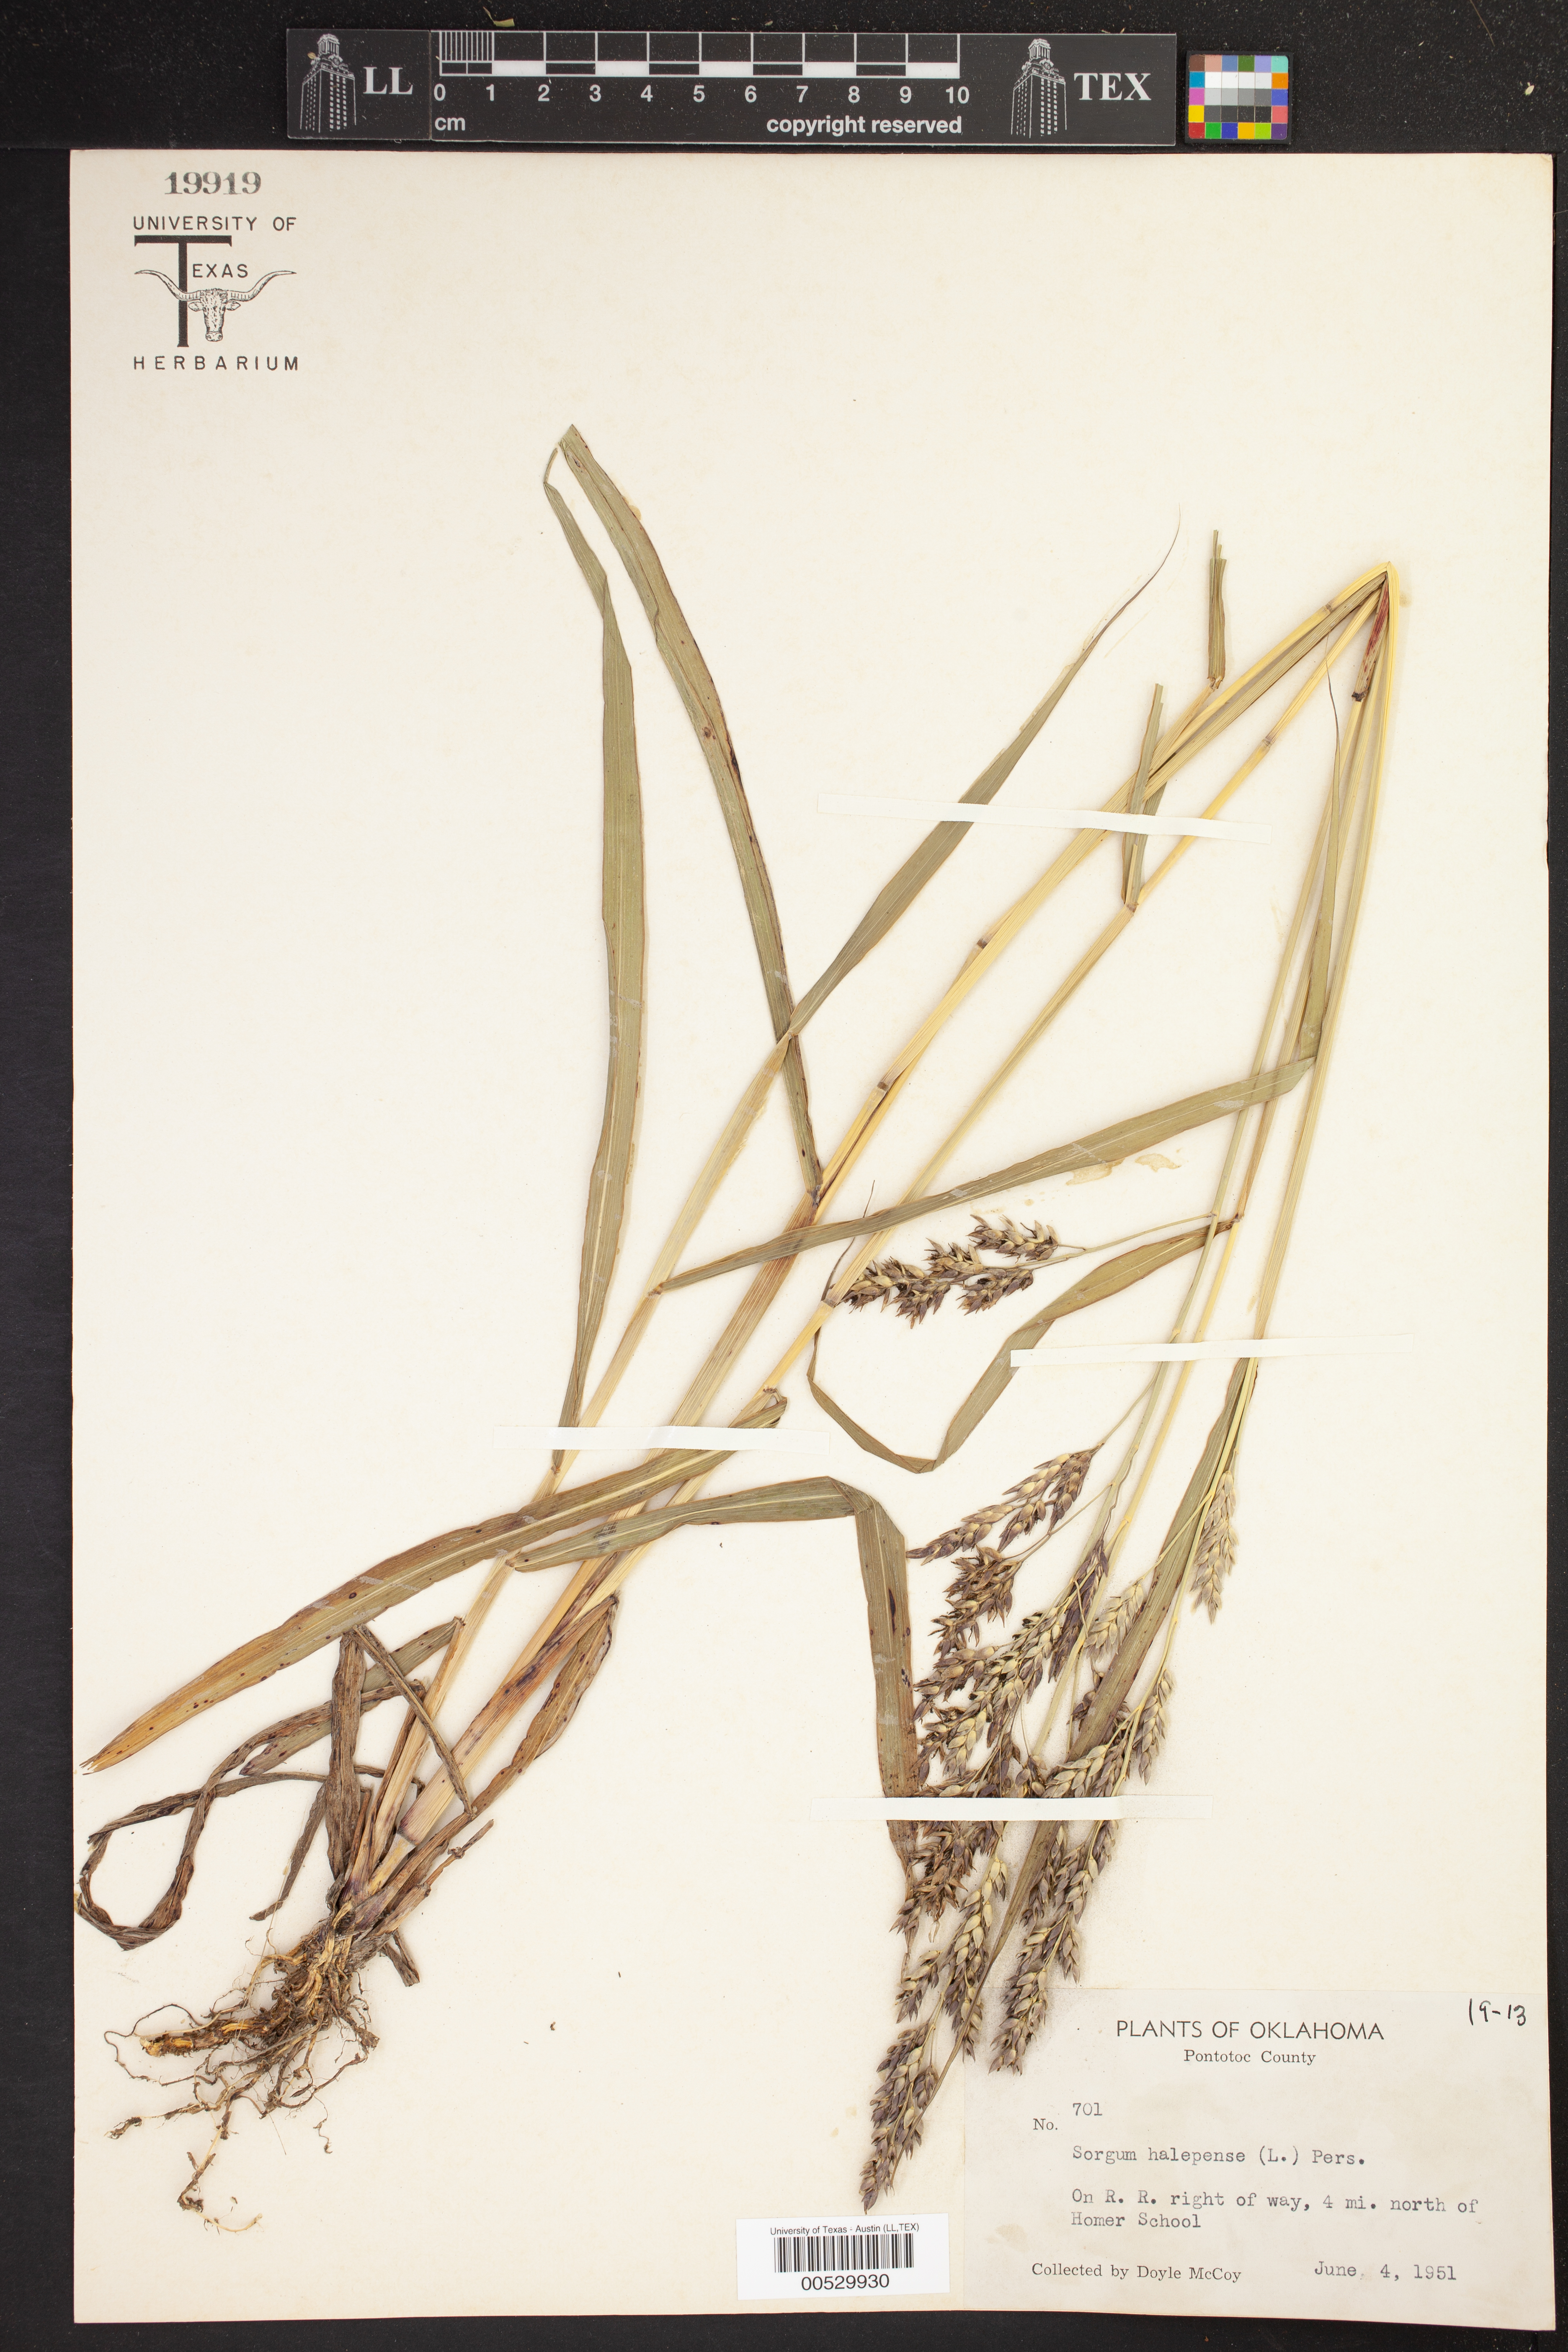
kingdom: Plantae
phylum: Tracheophyta
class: Liliopsida
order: Poales
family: Poaceae
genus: Sorghum
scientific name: Sorghum halepense
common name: Johnson-grass
